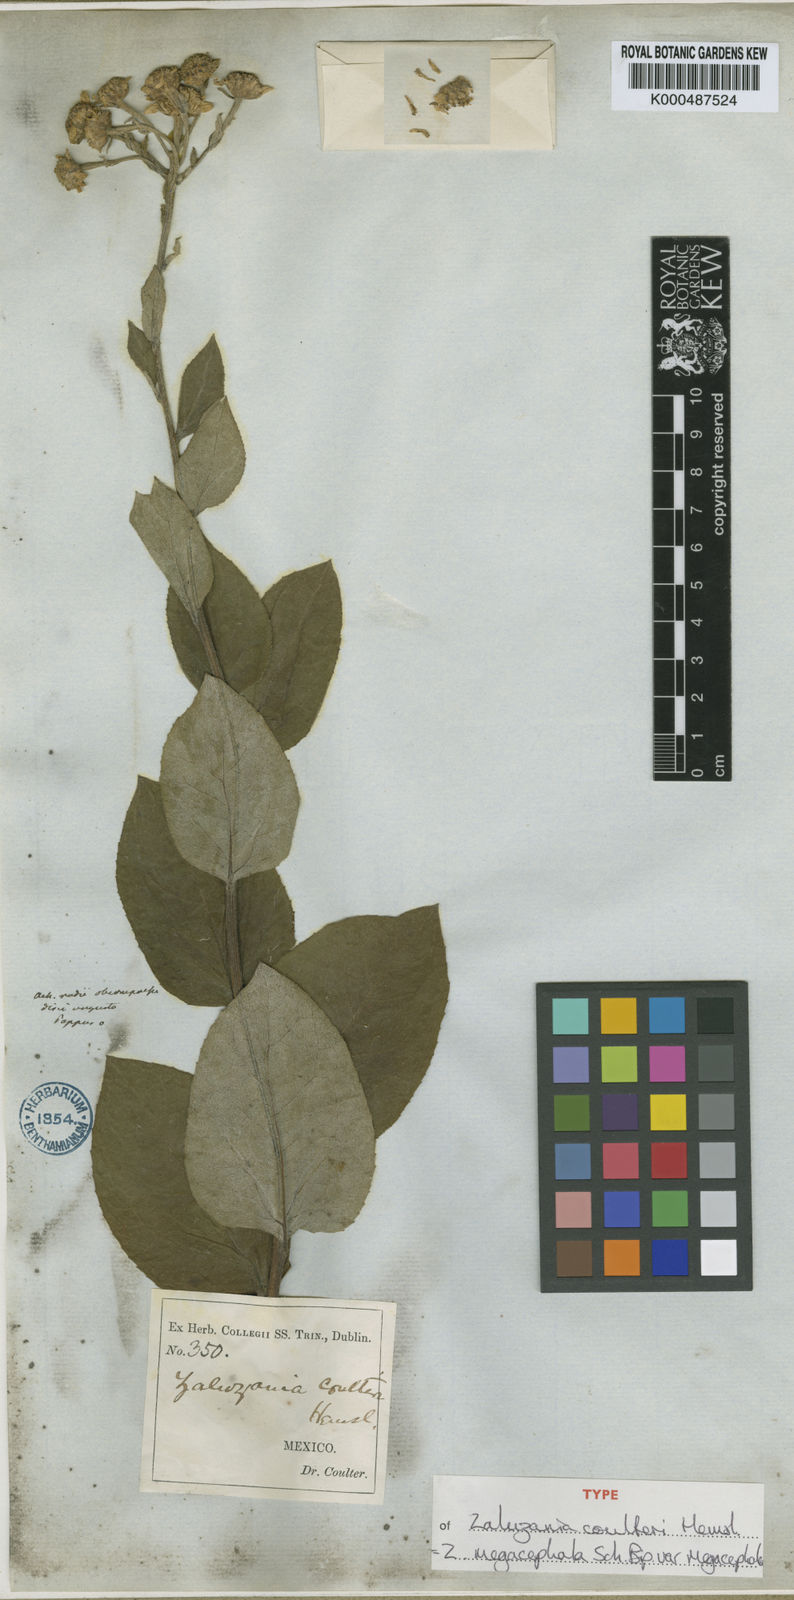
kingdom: Plantae
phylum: Tracheophyta
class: Magnoliopsida
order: Asterales
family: Asteraceae
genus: Zaluzania
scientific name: Zaluzania megacephala
